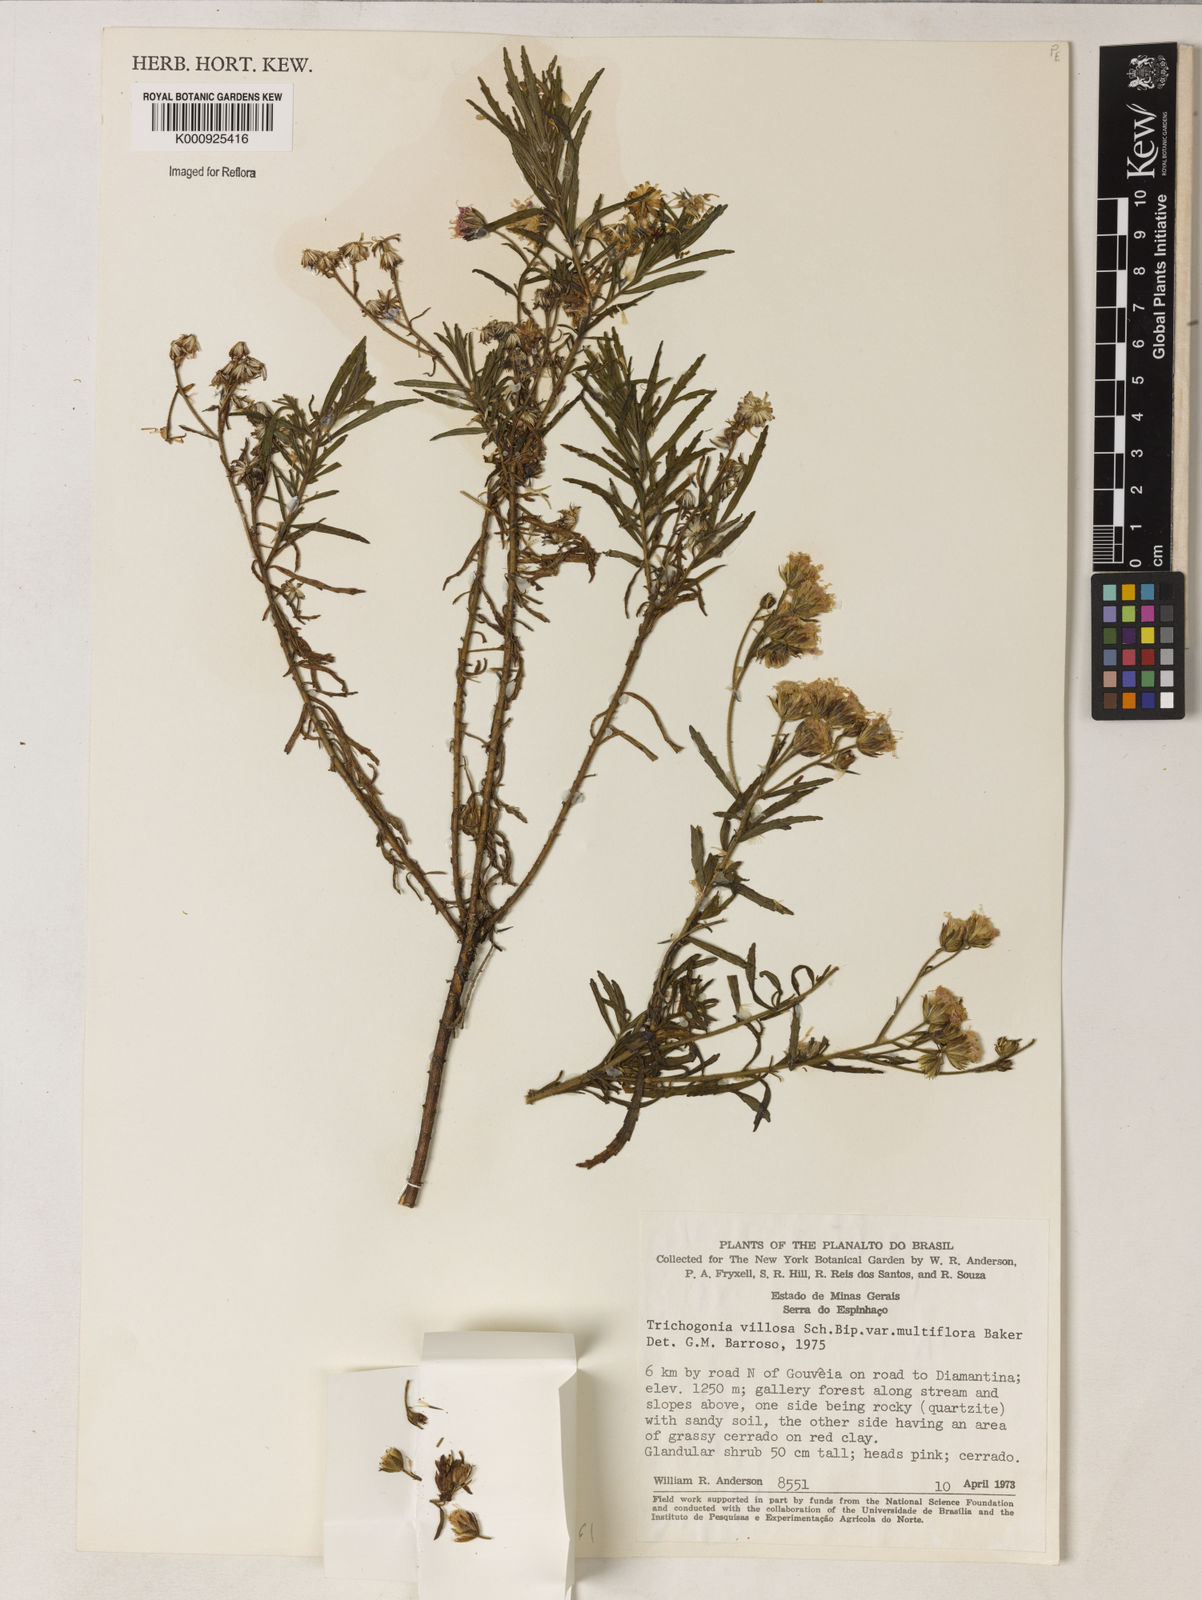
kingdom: Plantae
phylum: Tracheophyta
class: Magnoliopsida
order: Asterales
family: Asteraceae
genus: Trichogonia
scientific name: Trichogonia villosa
